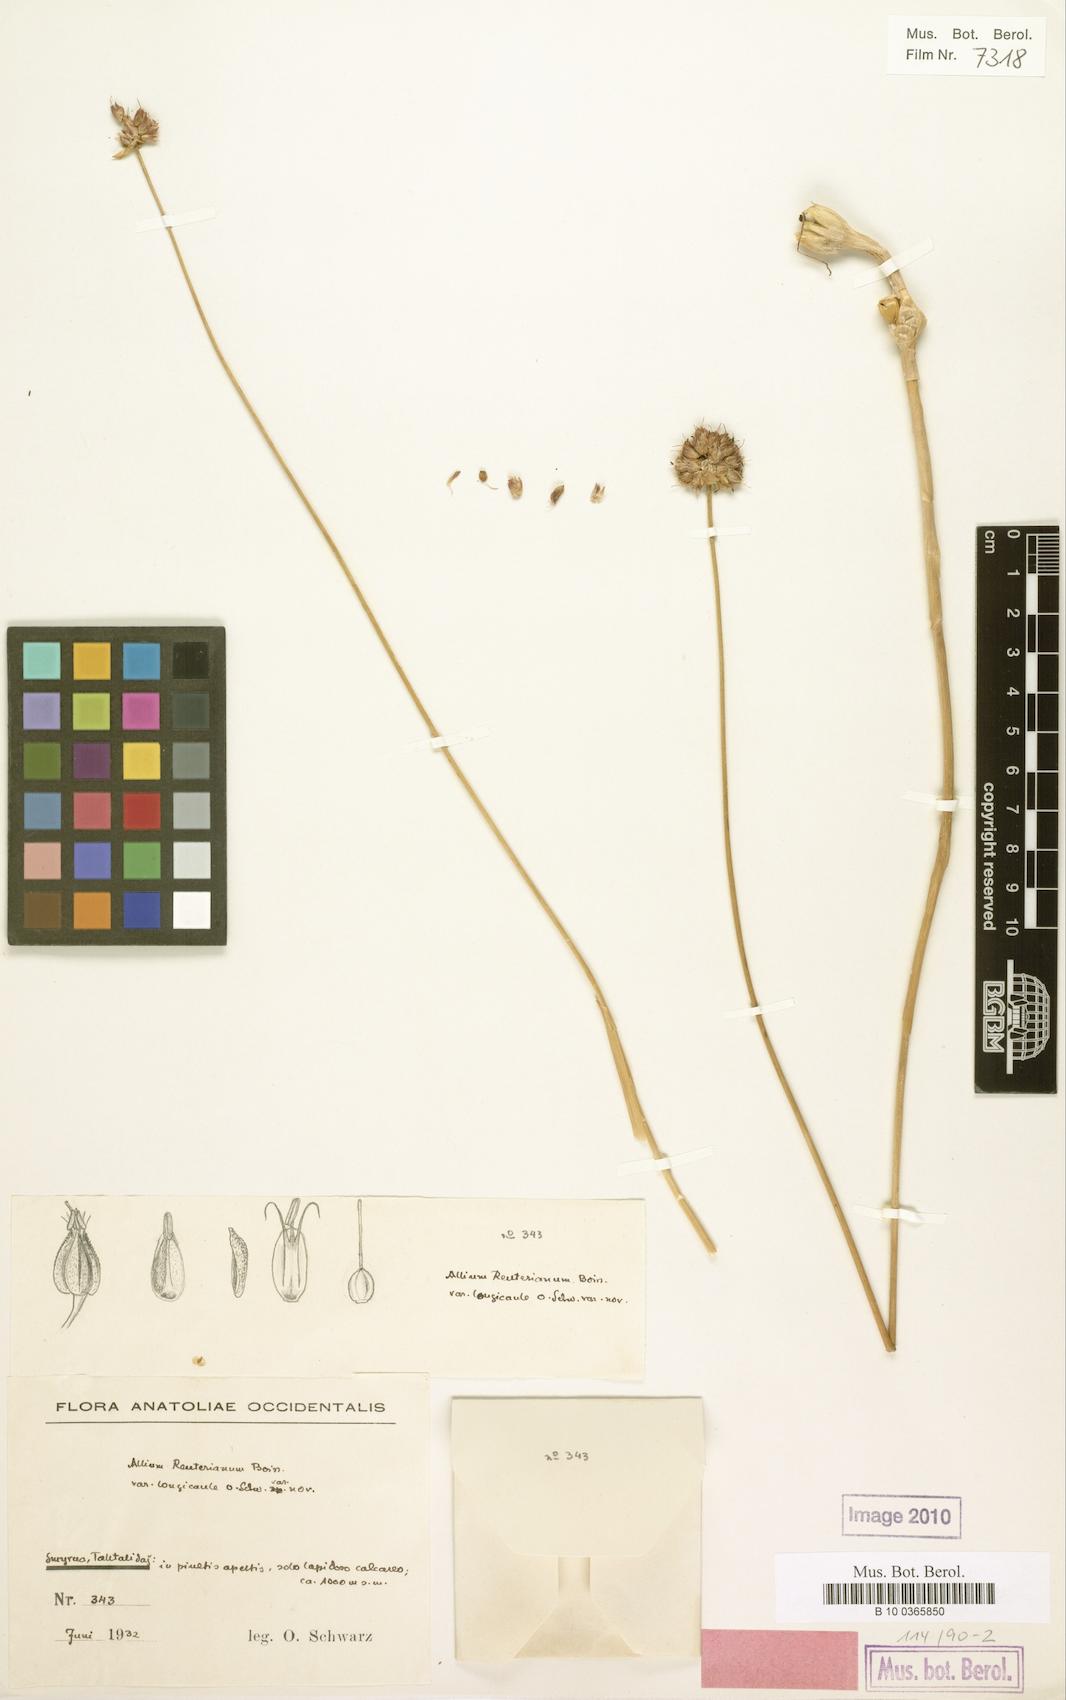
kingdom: Plantae
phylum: Tracheophyta
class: Liliopsida
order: Asparagales
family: Amaryllidaceae
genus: Allium
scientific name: Allium reuterianum
